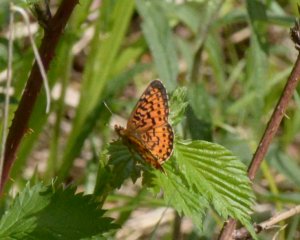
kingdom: Animalia
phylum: Arthropoda
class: Insecta
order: Lepidoptera
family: Nymphalidae
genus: Boloria
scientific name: Boloria selene
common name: Silver-bordered Fritillary
